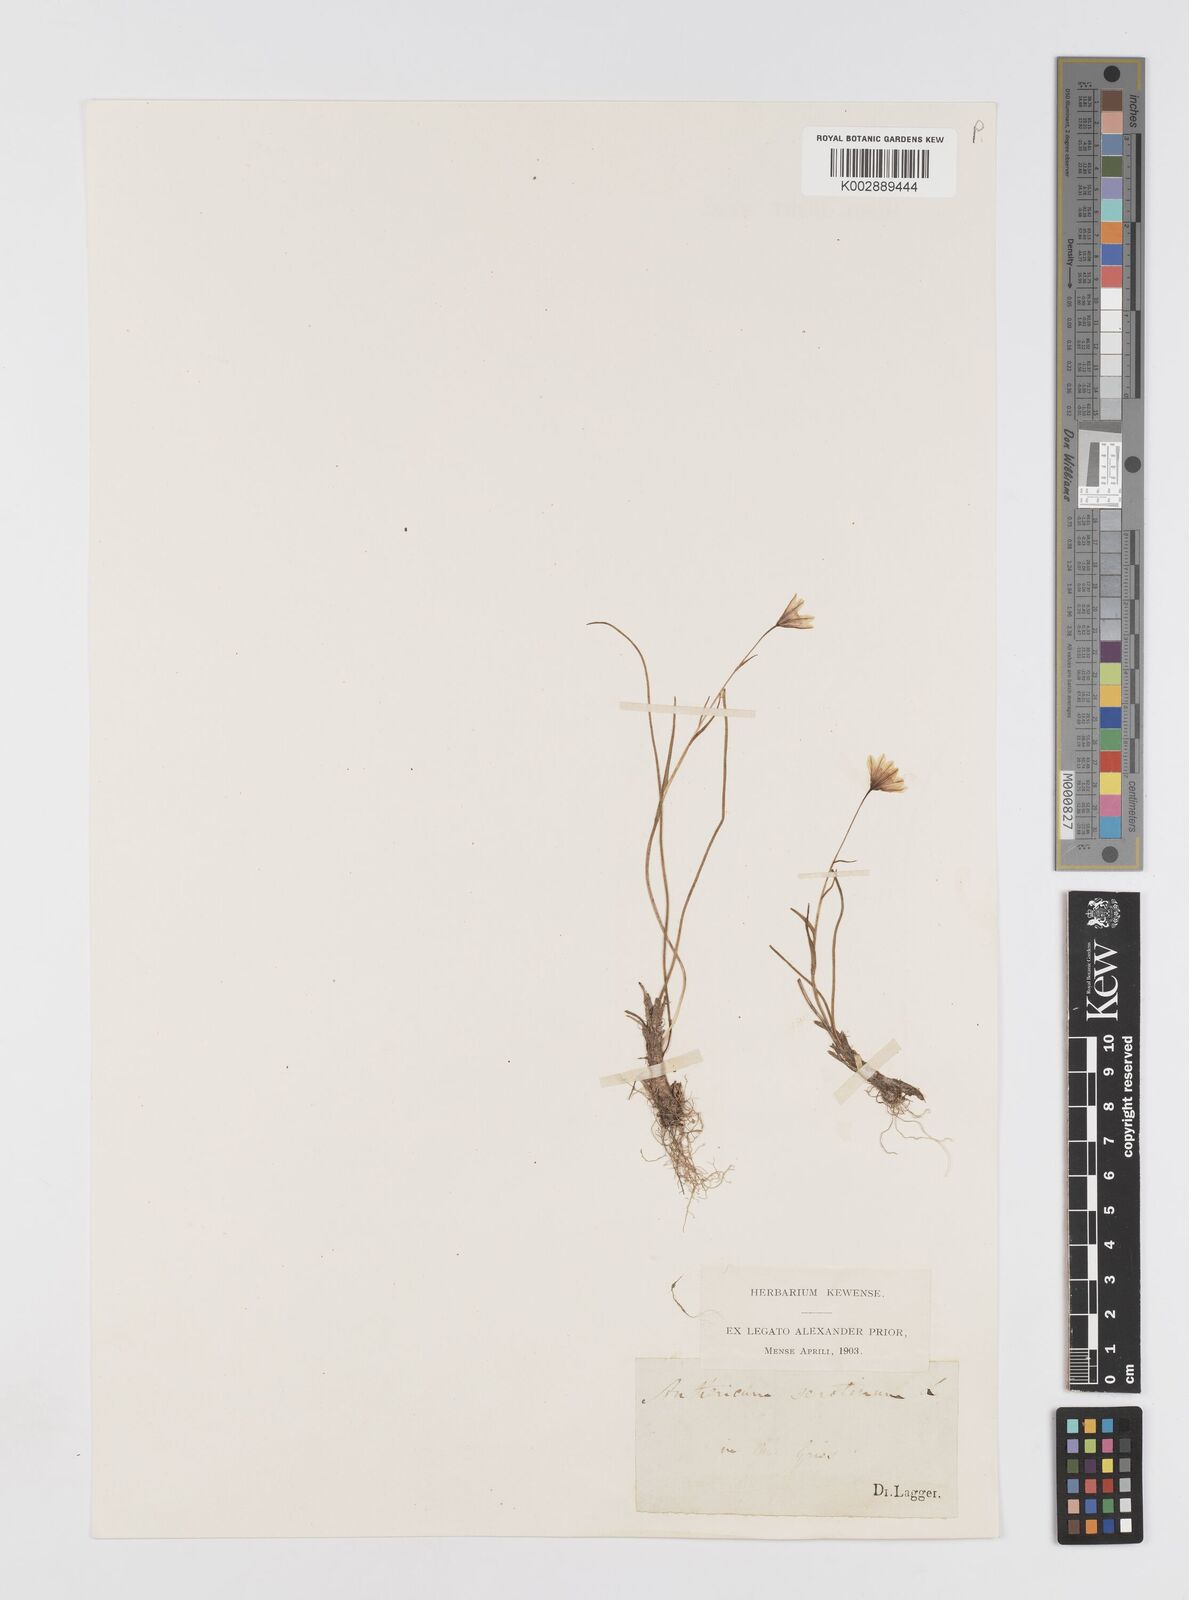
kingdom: Plantae
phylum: Tracheophyta
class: Liliopsida
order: Liliales
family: Liliaceae
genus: Gagea
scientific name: Gagea
